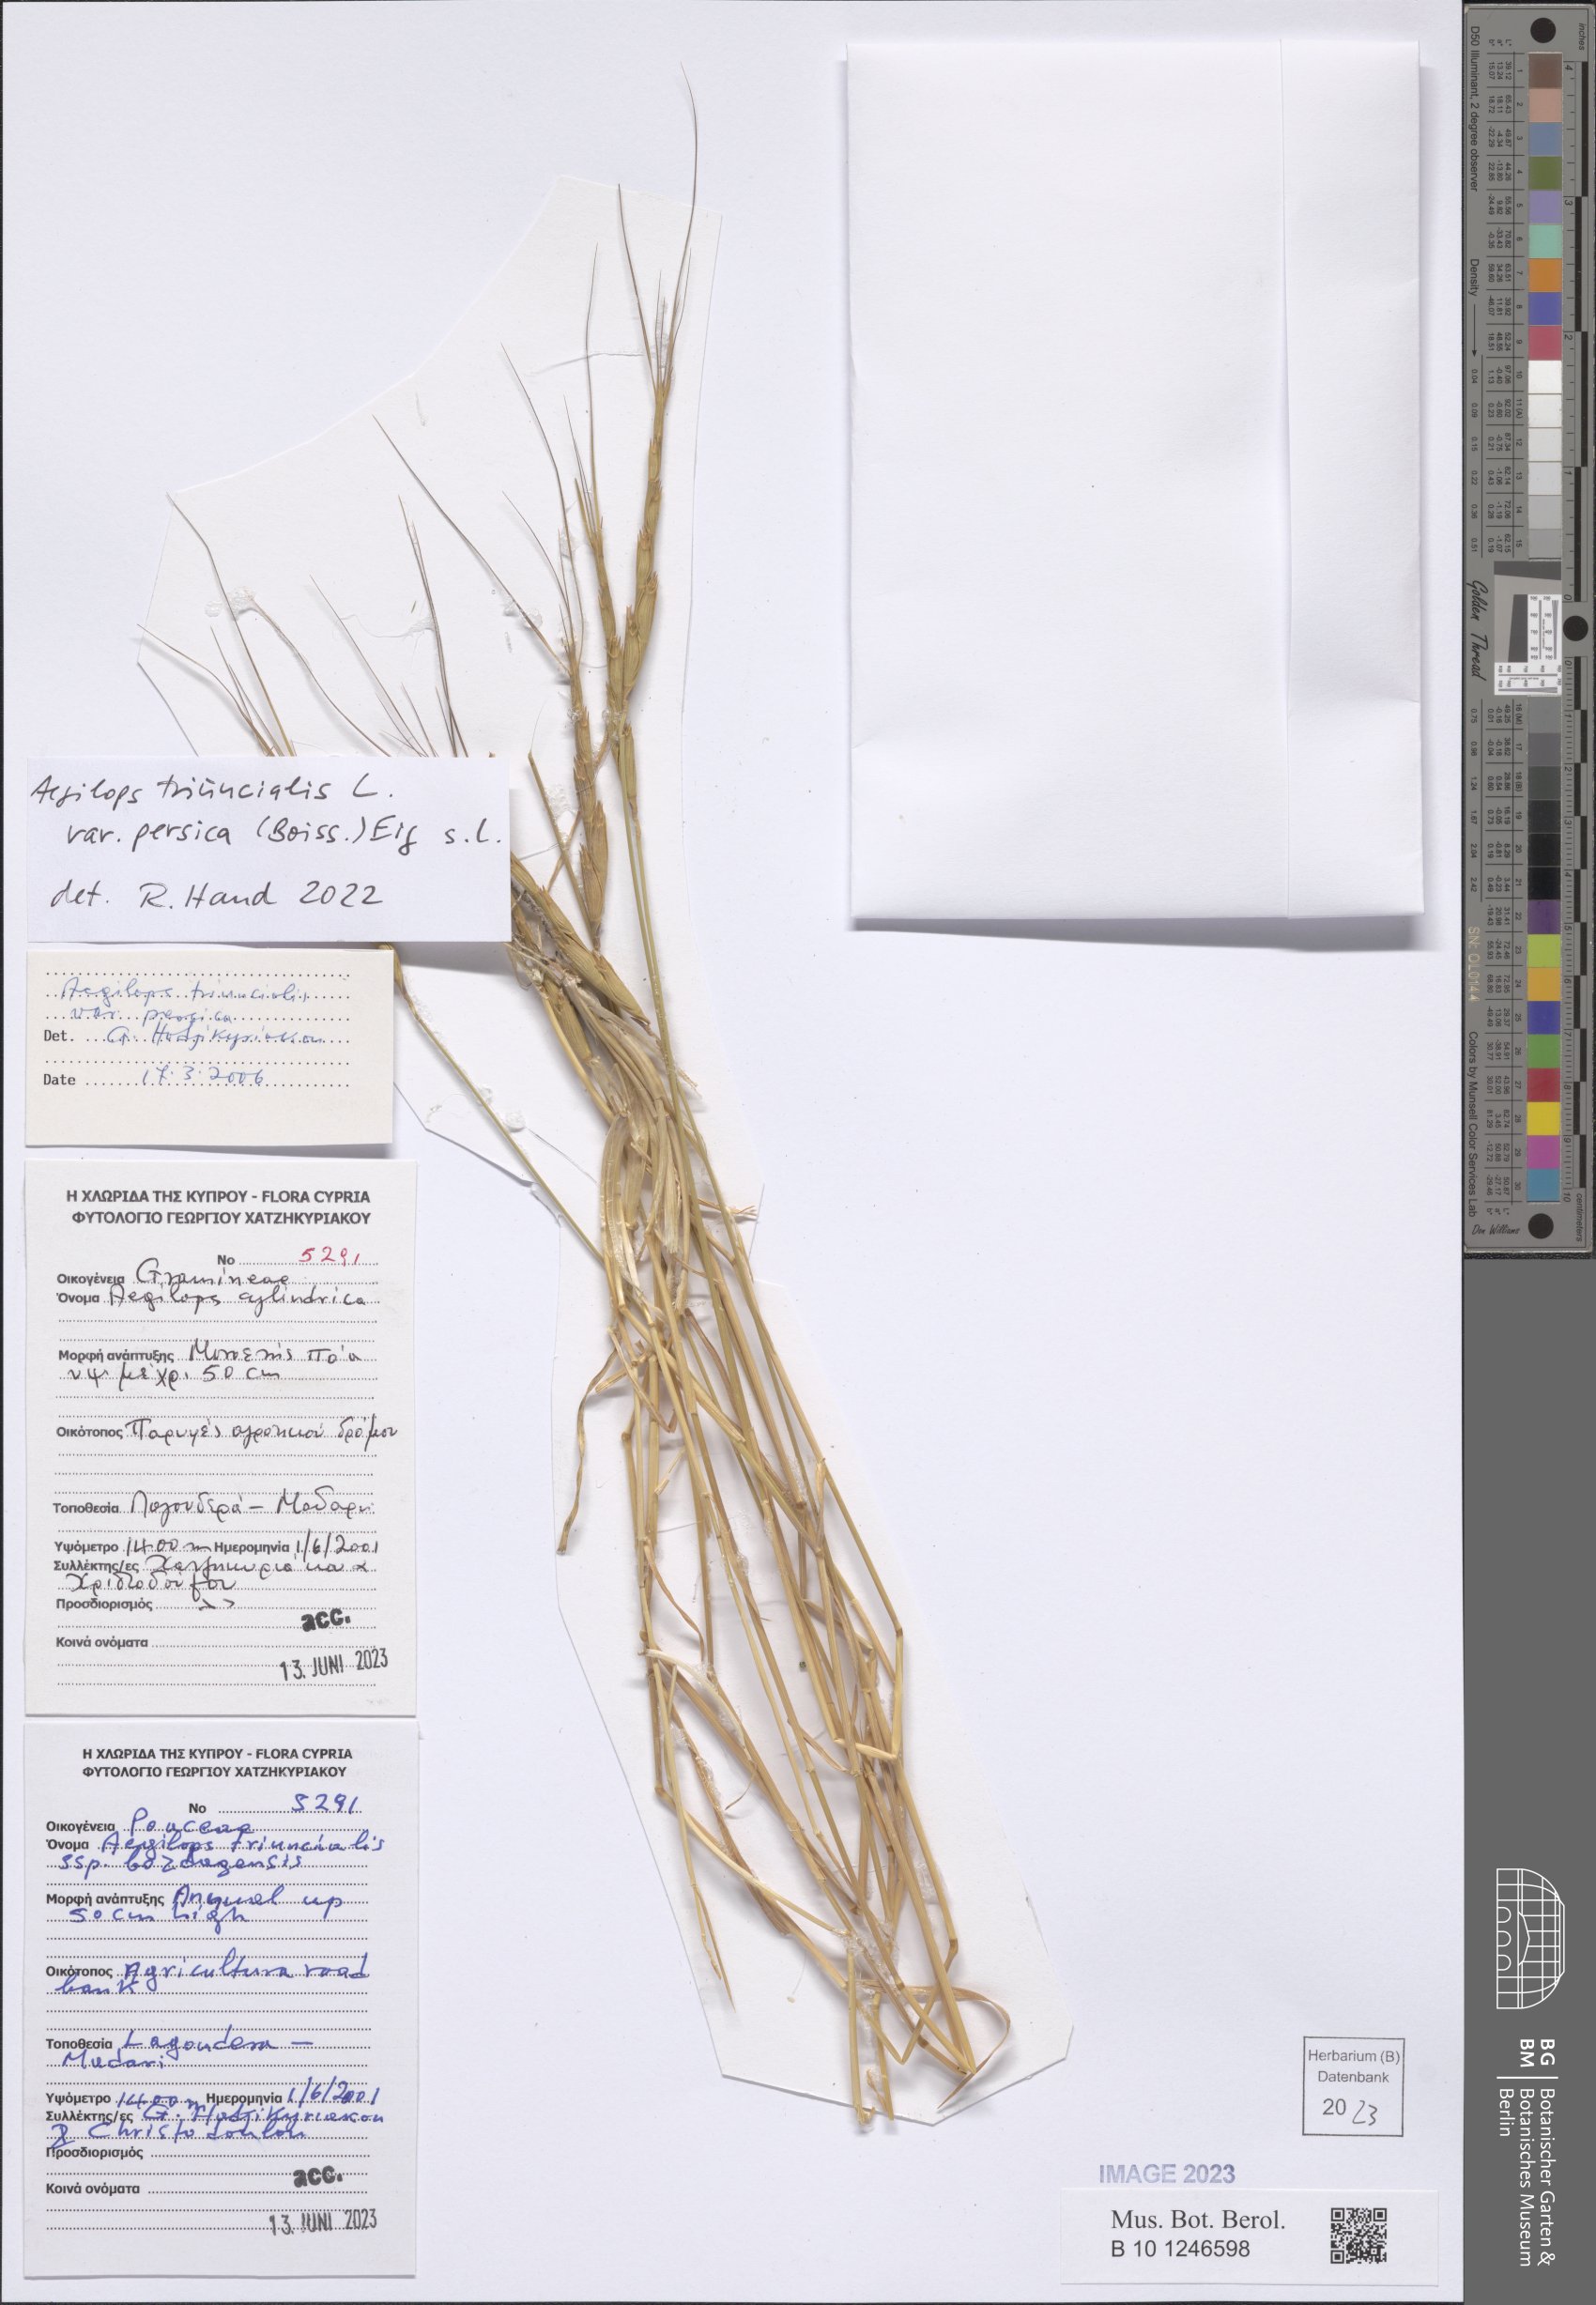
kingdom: Plantae
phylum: Tracheophyta
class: Liliopsida
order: Poales
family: Poaceae
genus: Aegilops
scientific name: Aegilops triuncialis
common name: Barb goat grass
